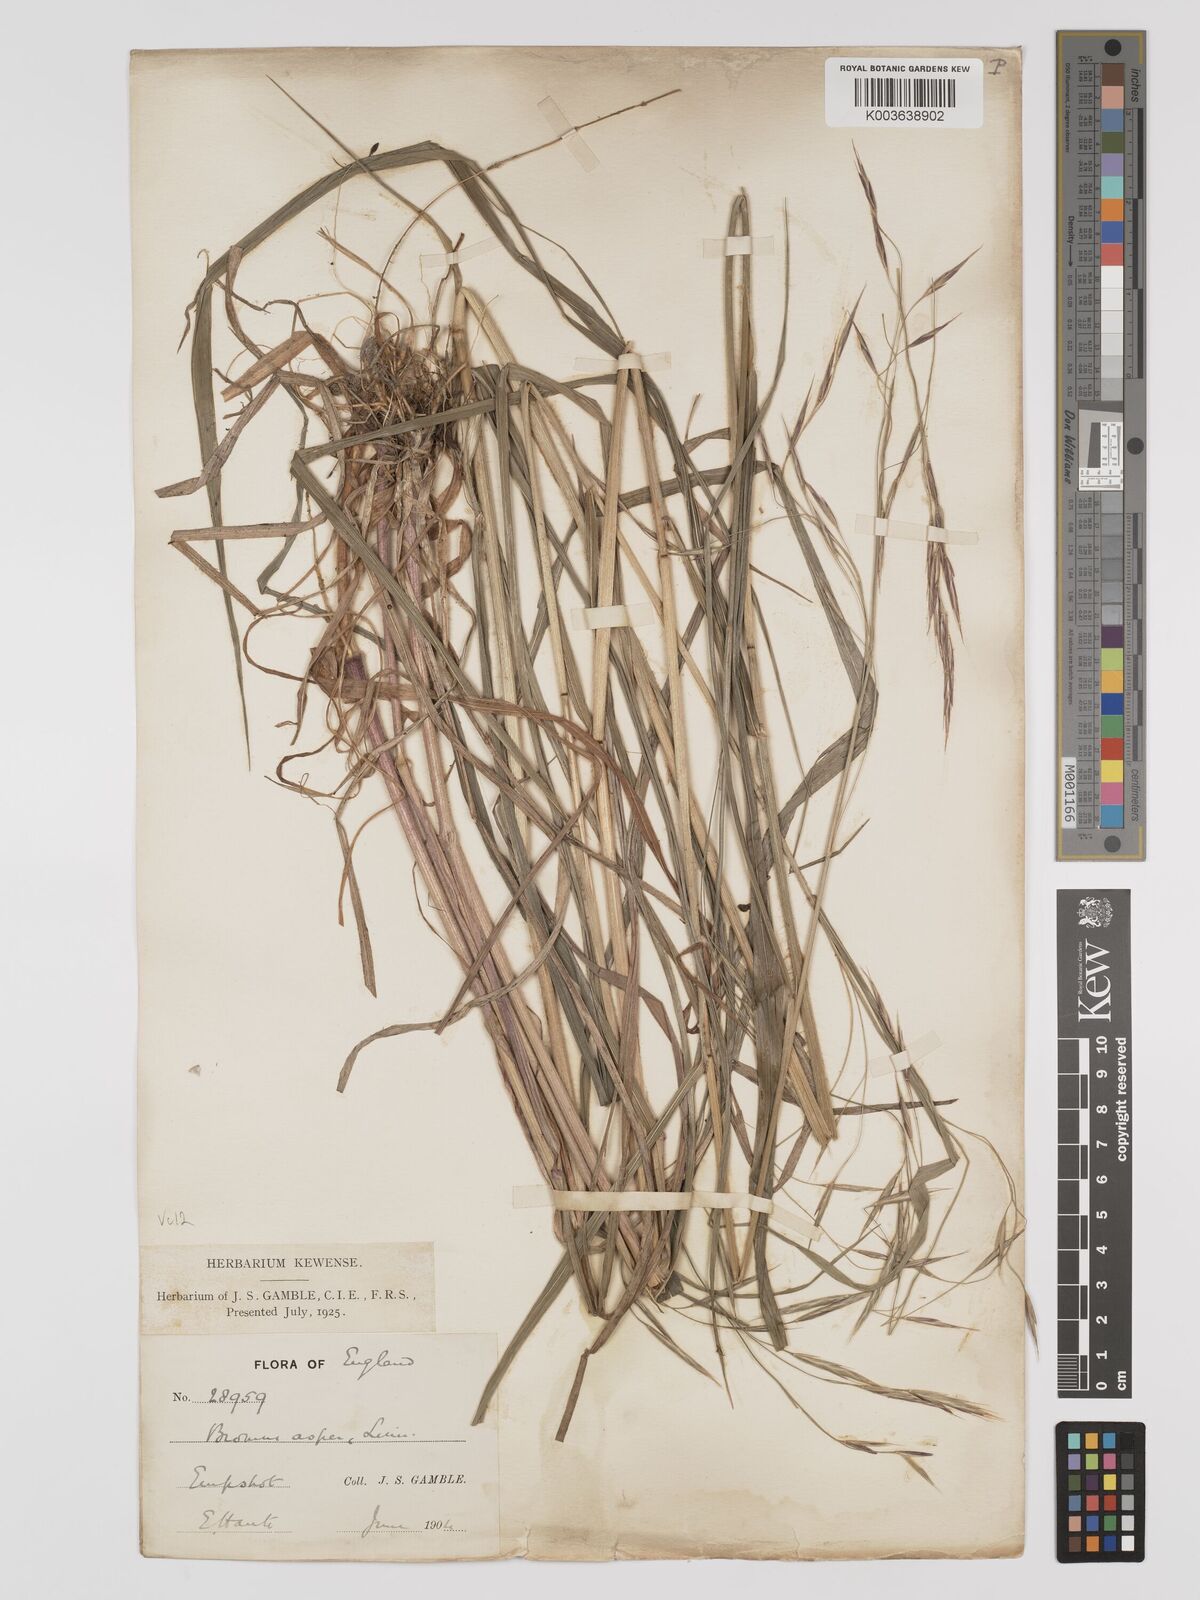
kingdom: Plantae
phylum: Tracheophyta
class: Liliopsida
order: Poales
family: Poaceae
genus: Bromus
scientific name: Bromus ramosus
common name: Hairy brome
